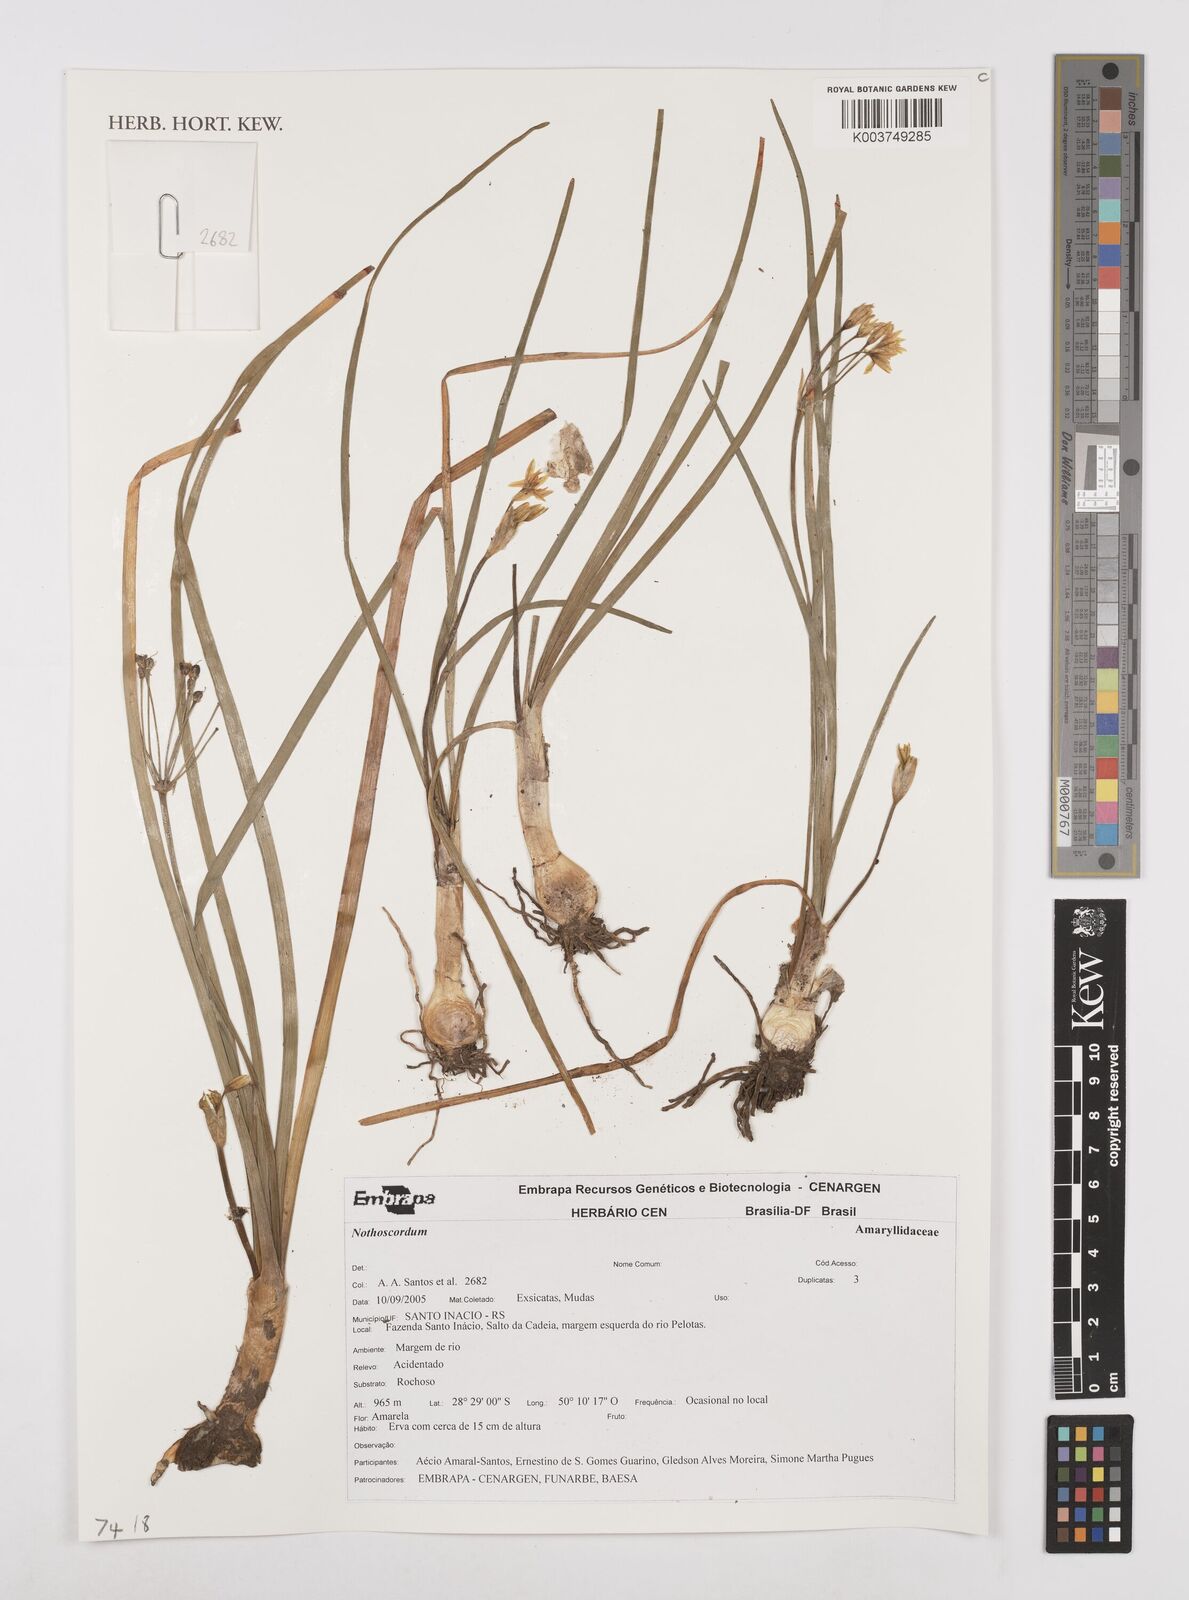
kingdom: Plantae
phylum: Tracheophyta
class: Liliopsida
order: Asparagales
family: Amaryllidaceae
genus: Nothoscordum
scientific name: Nothoscordum
